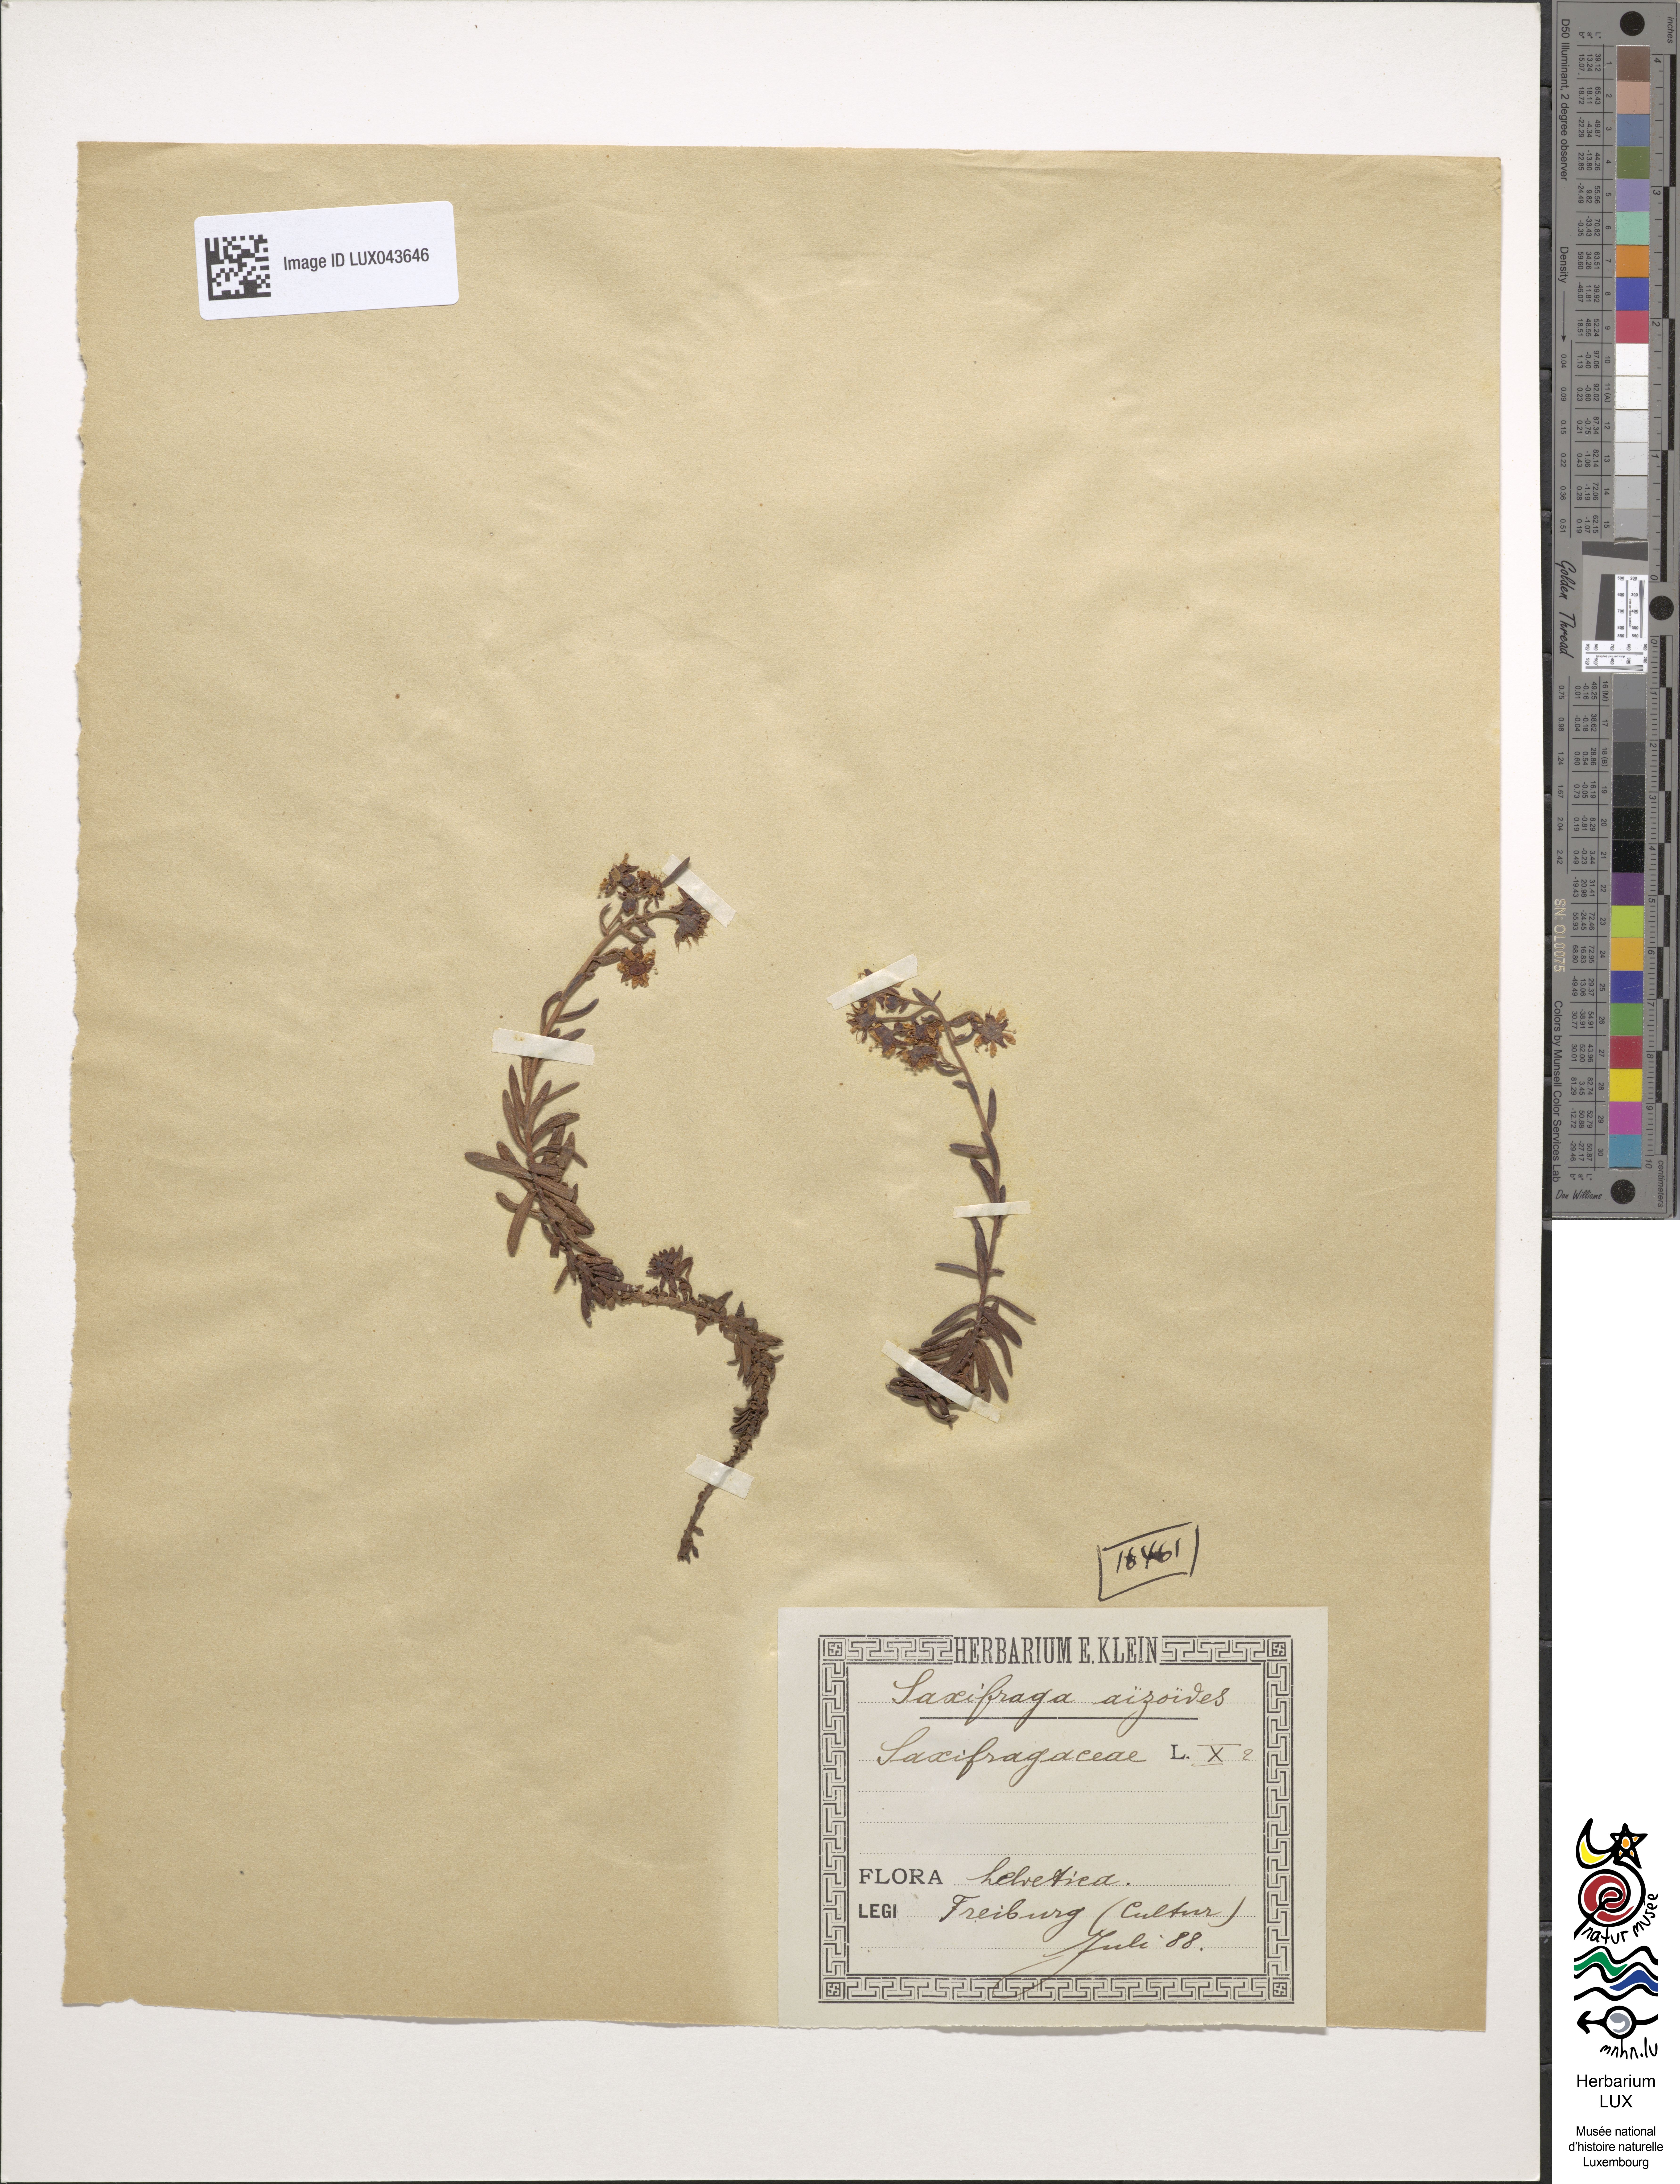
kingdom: Plantae
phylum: Tracheophyta
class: Magnoliopsida
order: Saxifragales
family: Saxifragaceae
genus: Saxifraga
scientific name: Saxifraga aizoides
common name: Yellow mountain saxifrage
